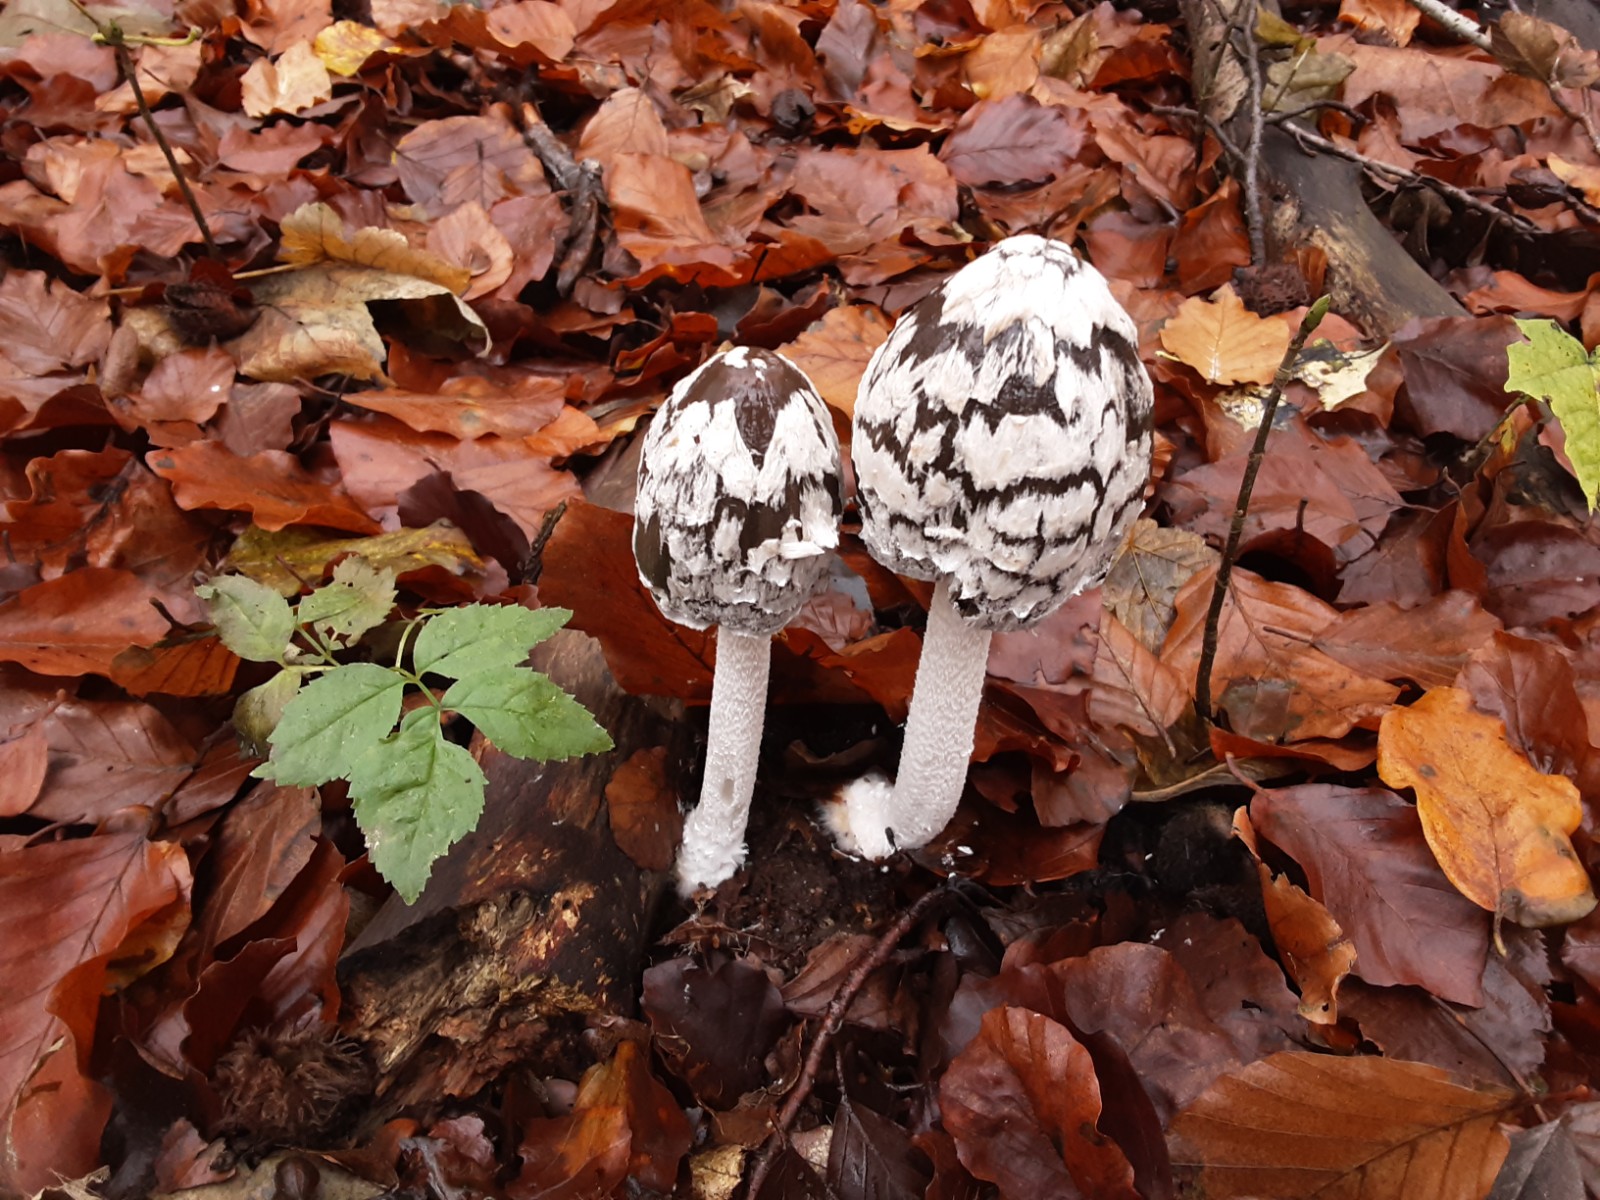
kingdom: Fungi
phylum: Basidiomycota
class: Agaricomycetes
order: Agaricales
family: Psathyrellaceae
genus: Coprinopsis
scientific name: Coprinopsis picacea
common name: skade-blækhat
